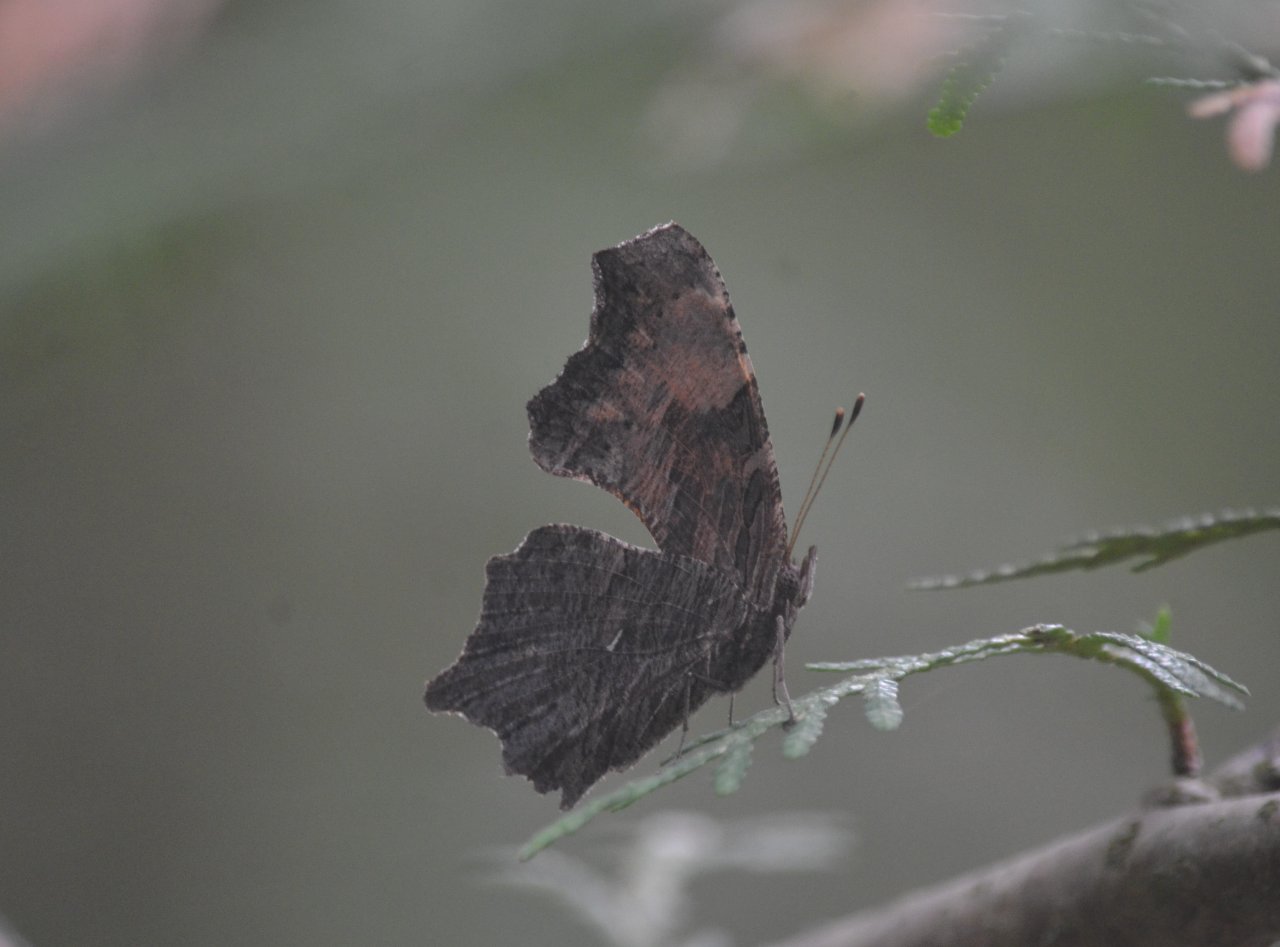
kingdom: Animalia
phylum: Arthropoda
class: Insecta
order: Lepidoptera
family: Nymphalidae
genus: Polygonia
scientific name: Polygonia progne
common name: Gray Comma
